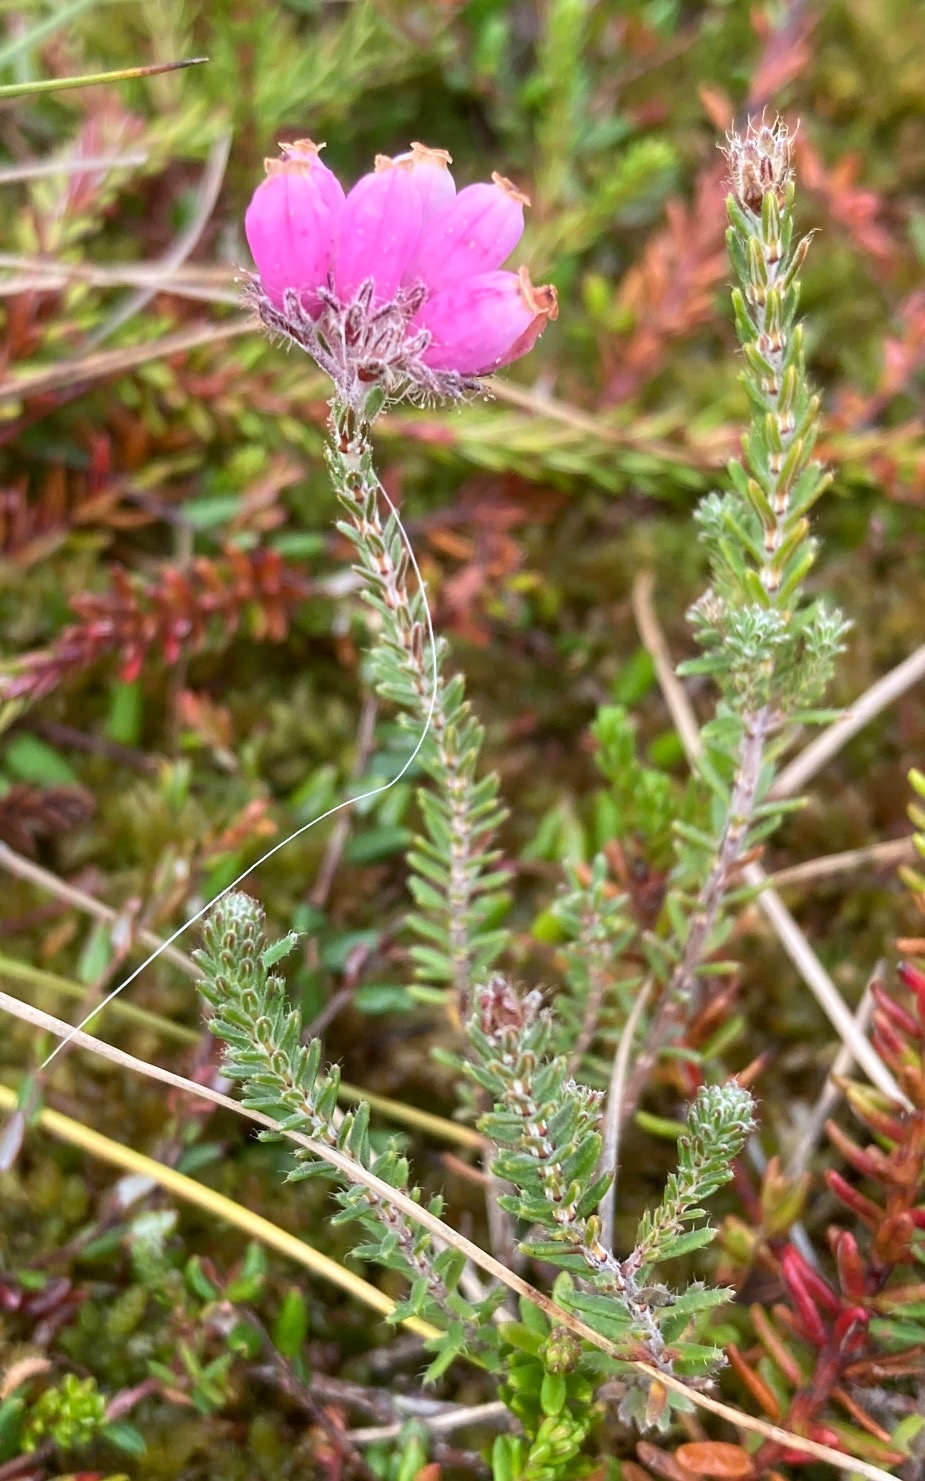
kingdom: Plantae
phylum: Tracheophyta
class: Magnoliopsida
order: Ericales
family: Ericaceae
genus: Erica
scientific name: Erica tetralix
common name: Klokkelyng
